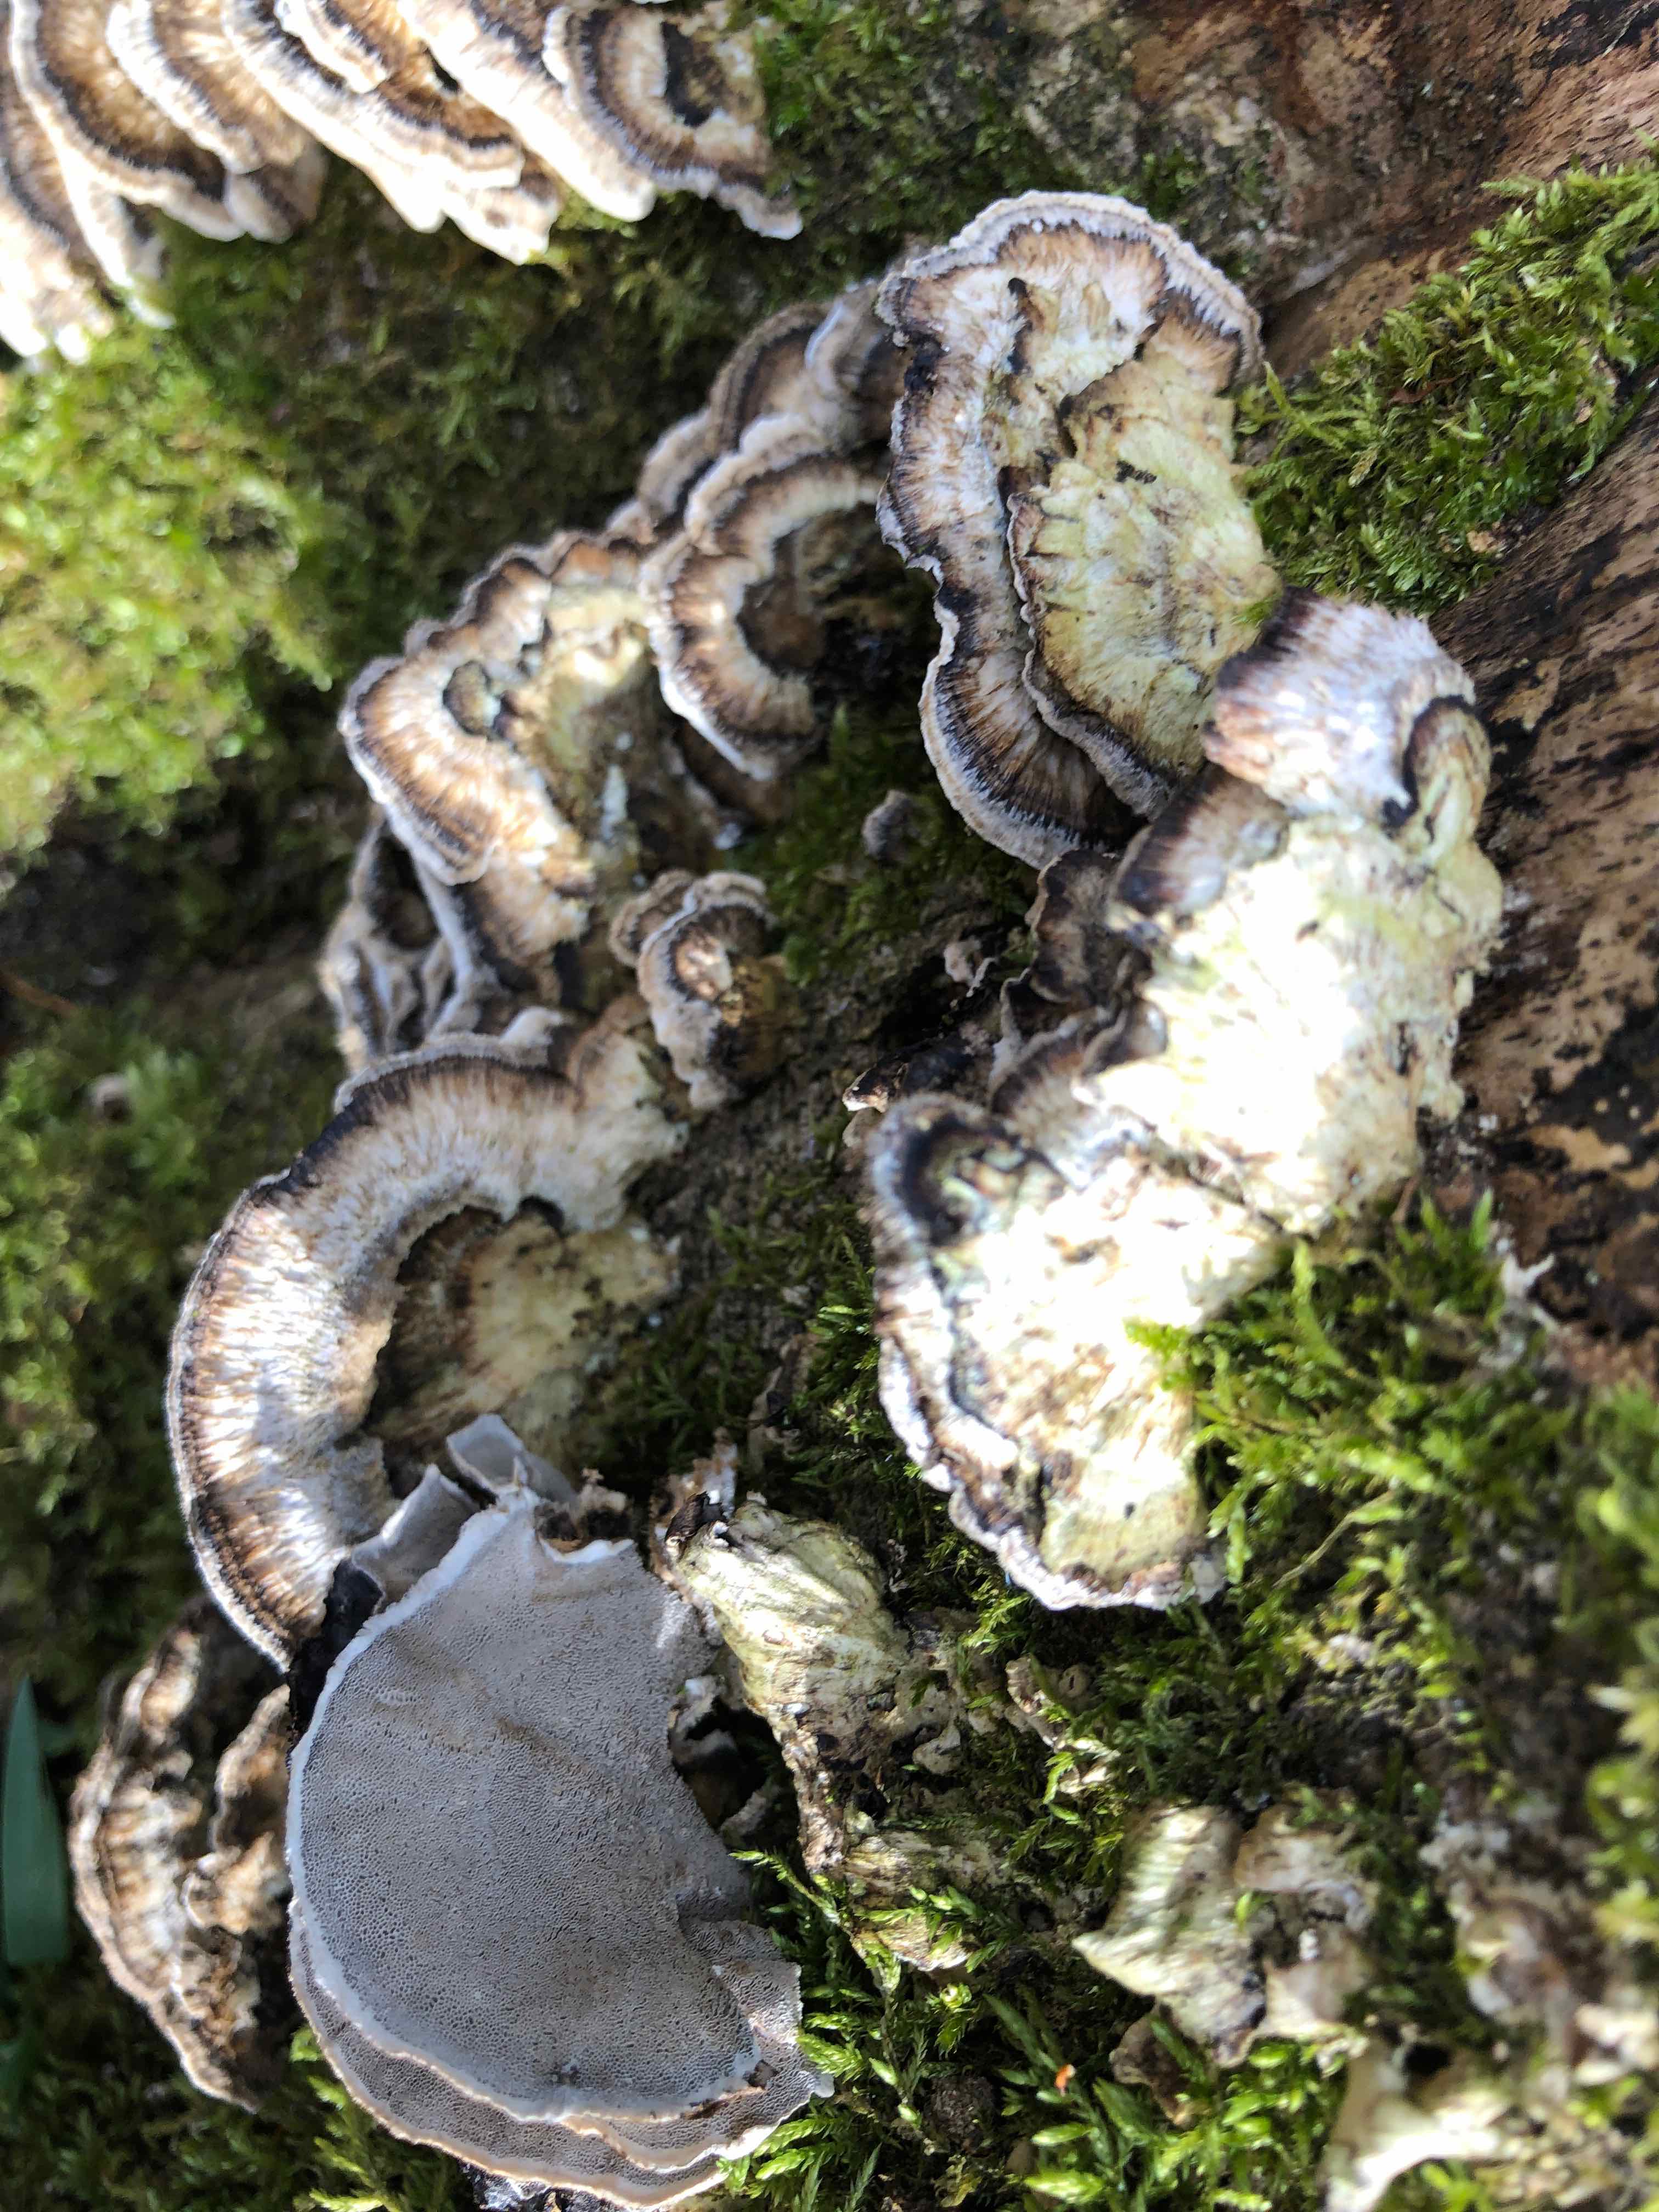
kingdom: Fungi
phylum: Basidiomycota
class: Agaricomycetes
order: Polyporales
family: Phanerochaetaceae
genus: Bjerkandera
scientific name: Bjerkandera adusta
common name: sveden sodporesvamp
